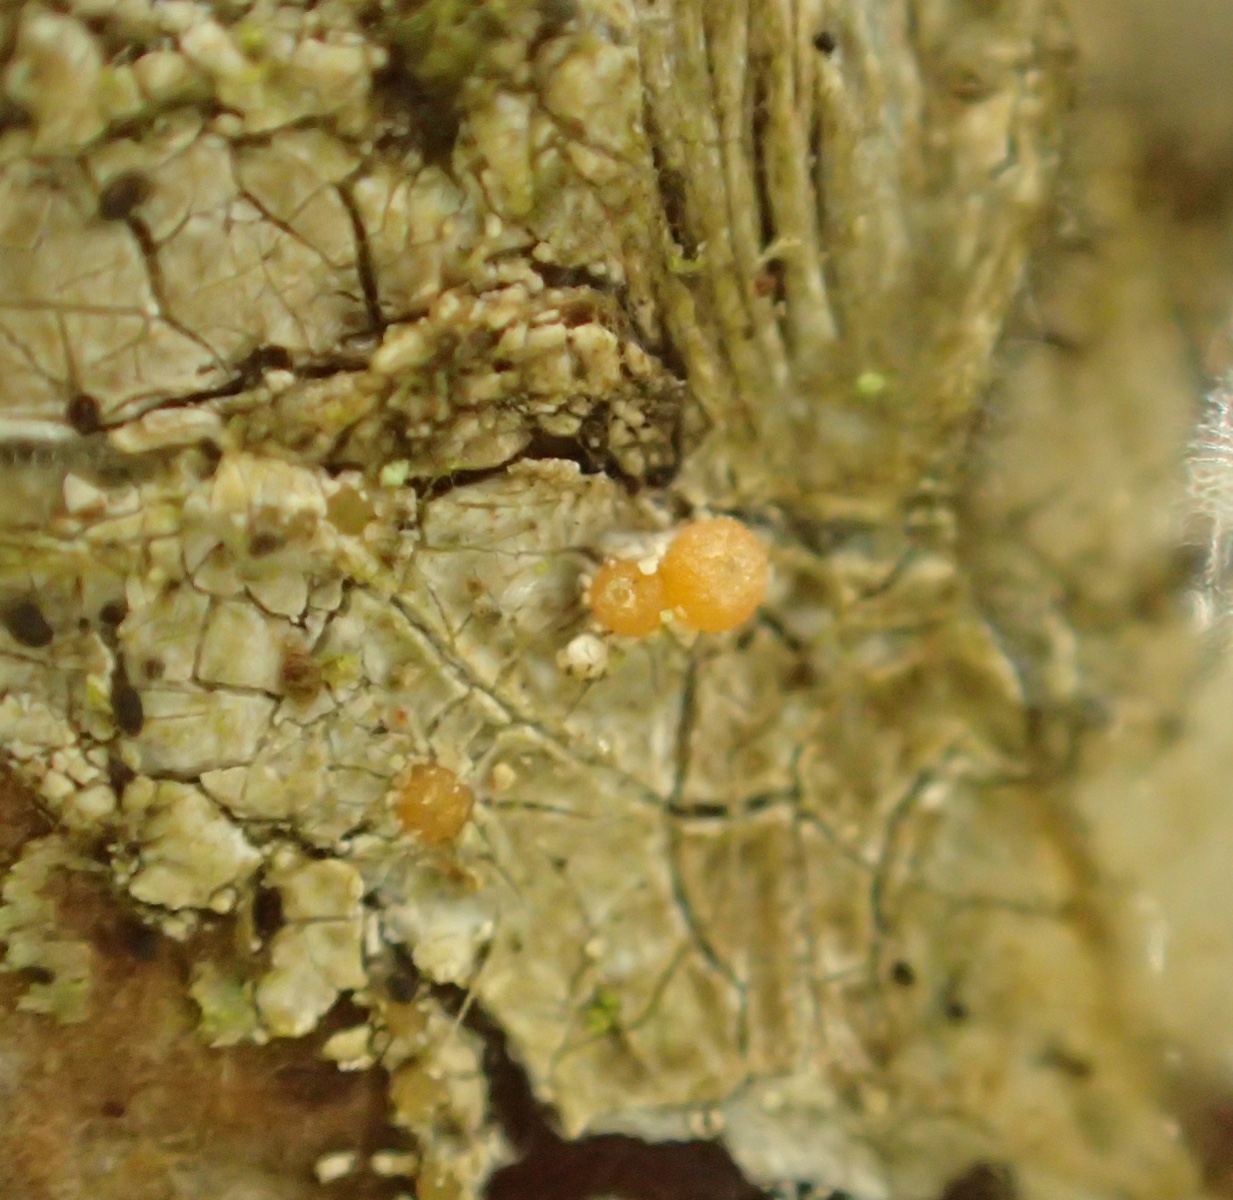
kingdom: Fungi
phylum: Ascomycota
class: Sareomycetes
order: Sareales
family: Sareaceae
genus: Sarea
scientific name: Sarea resinae
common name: orangegul harpiksskive
